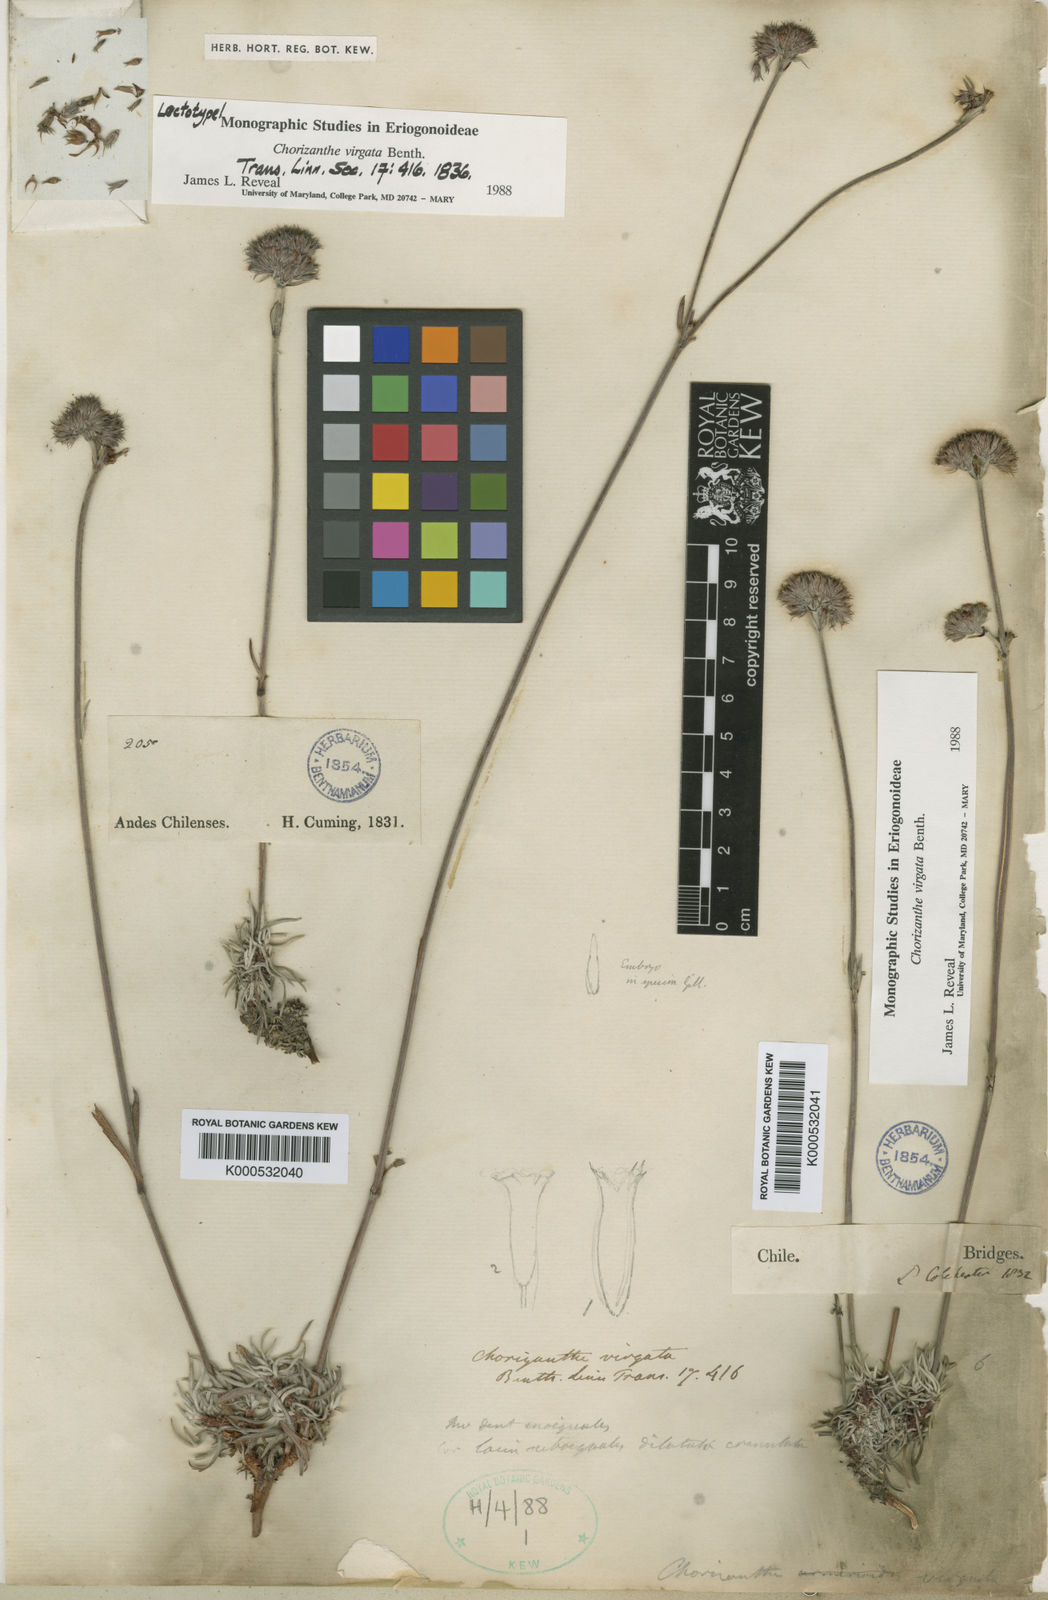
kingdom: Plantae
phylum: Tracheophyta
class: Magnoliopsida
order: Caryophyllales
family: Polygonaceae
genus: Chorizanthe
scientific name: Chorizanthe virgata
